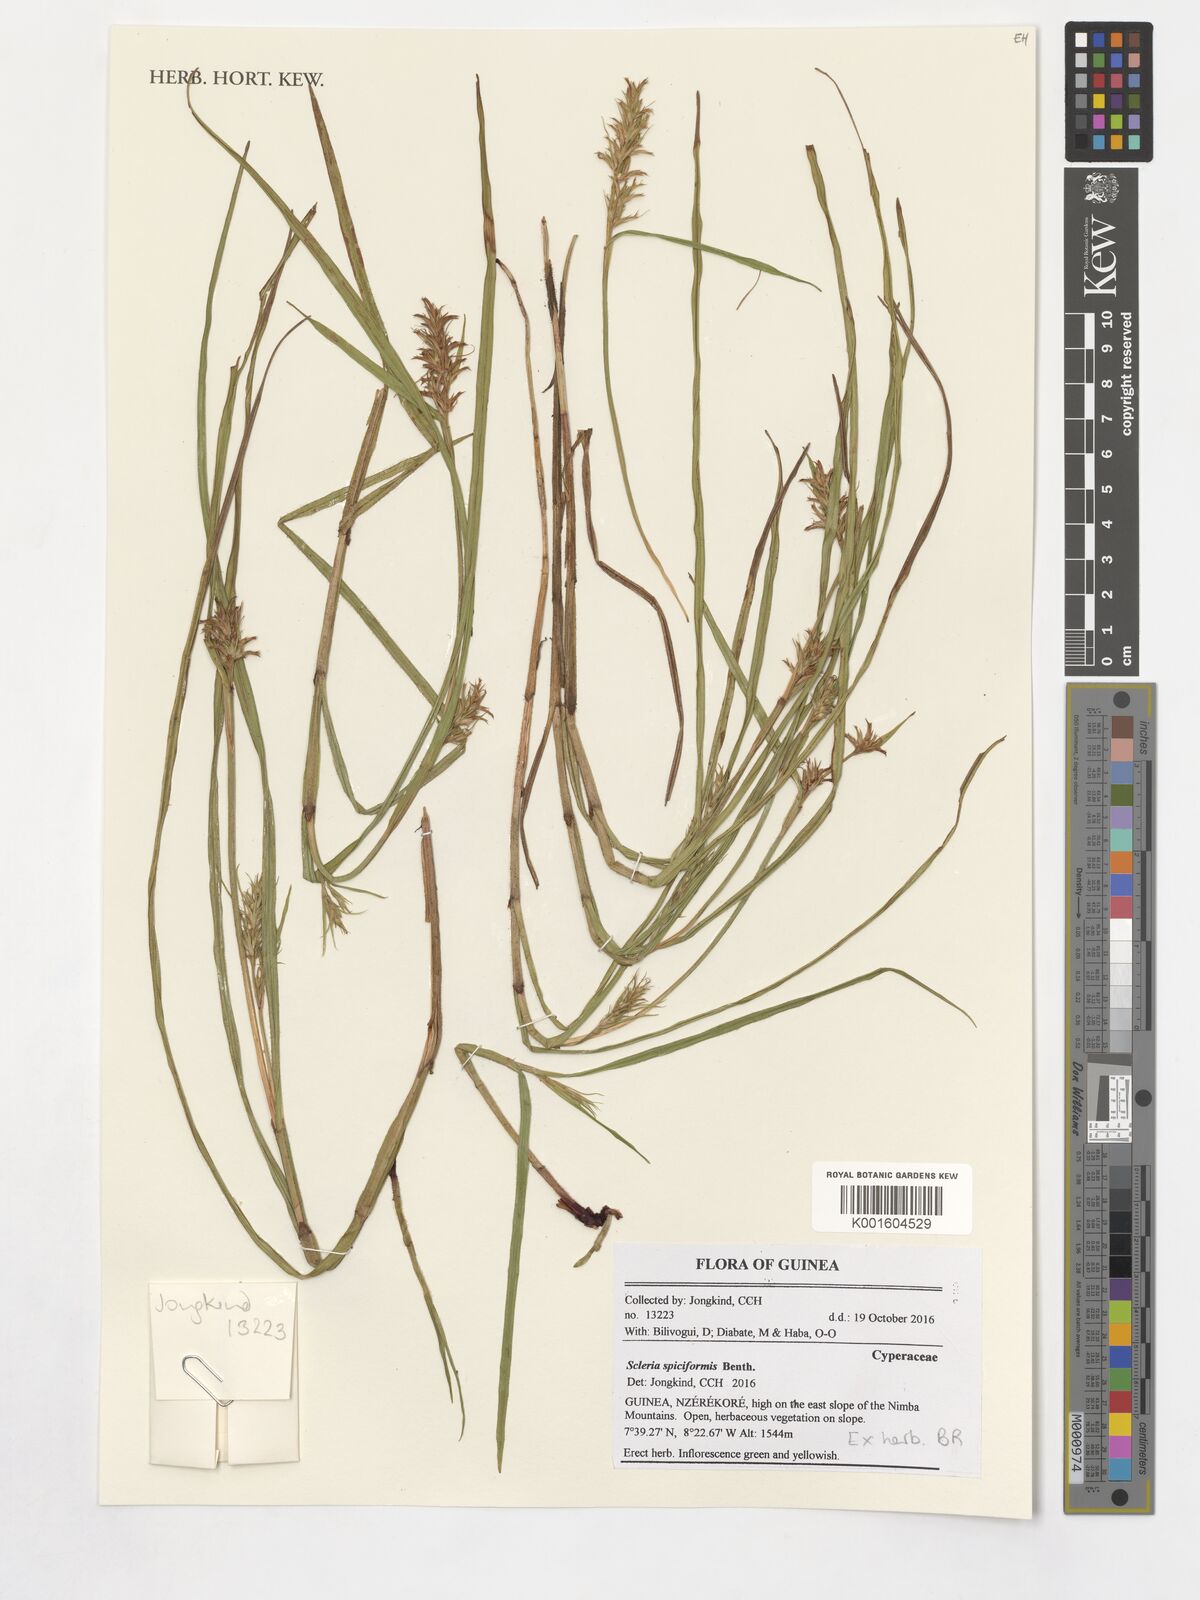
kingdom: Plantae
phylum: Tracheophyta
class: Liliopsida
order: Poales
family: Cyperaceae
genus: Scleria
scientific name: Scleria spiciformis
